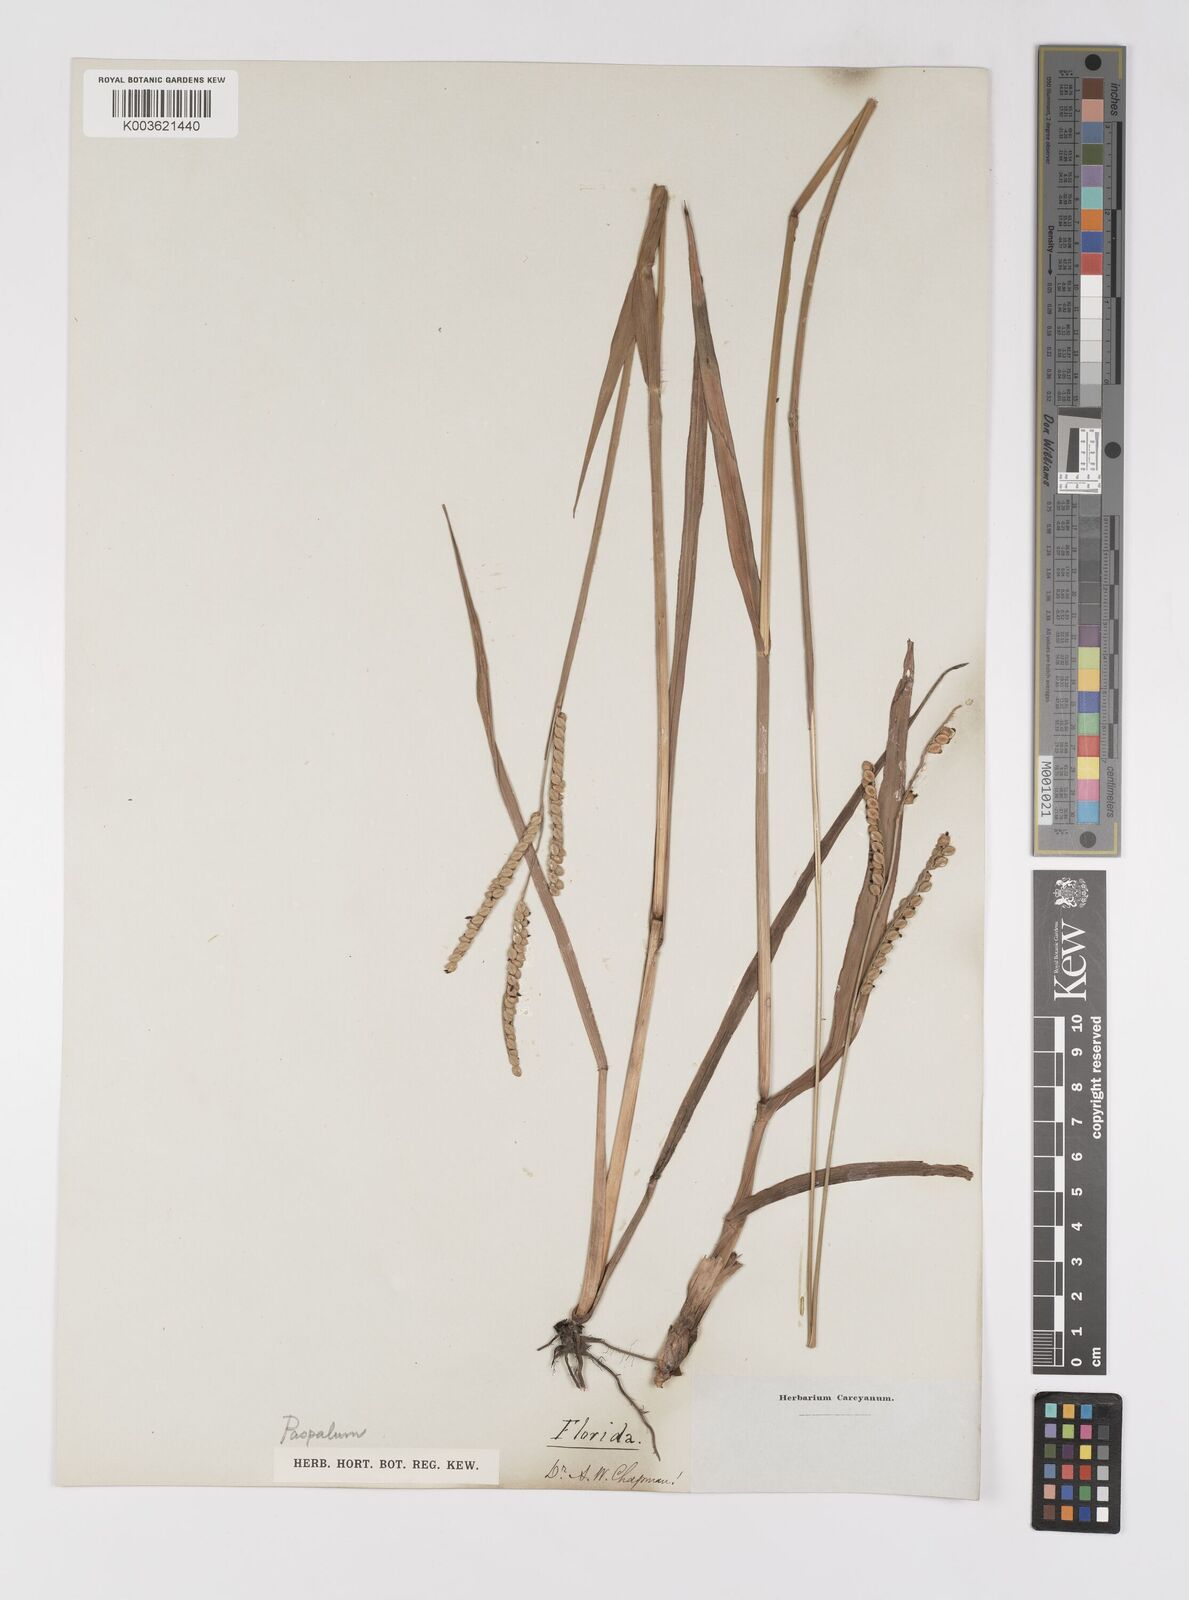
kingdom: Plantae
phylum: Tracheophyta
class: Liliopsida
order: Poales
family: Poaceae
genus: Paspalum
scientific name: Paspalum
